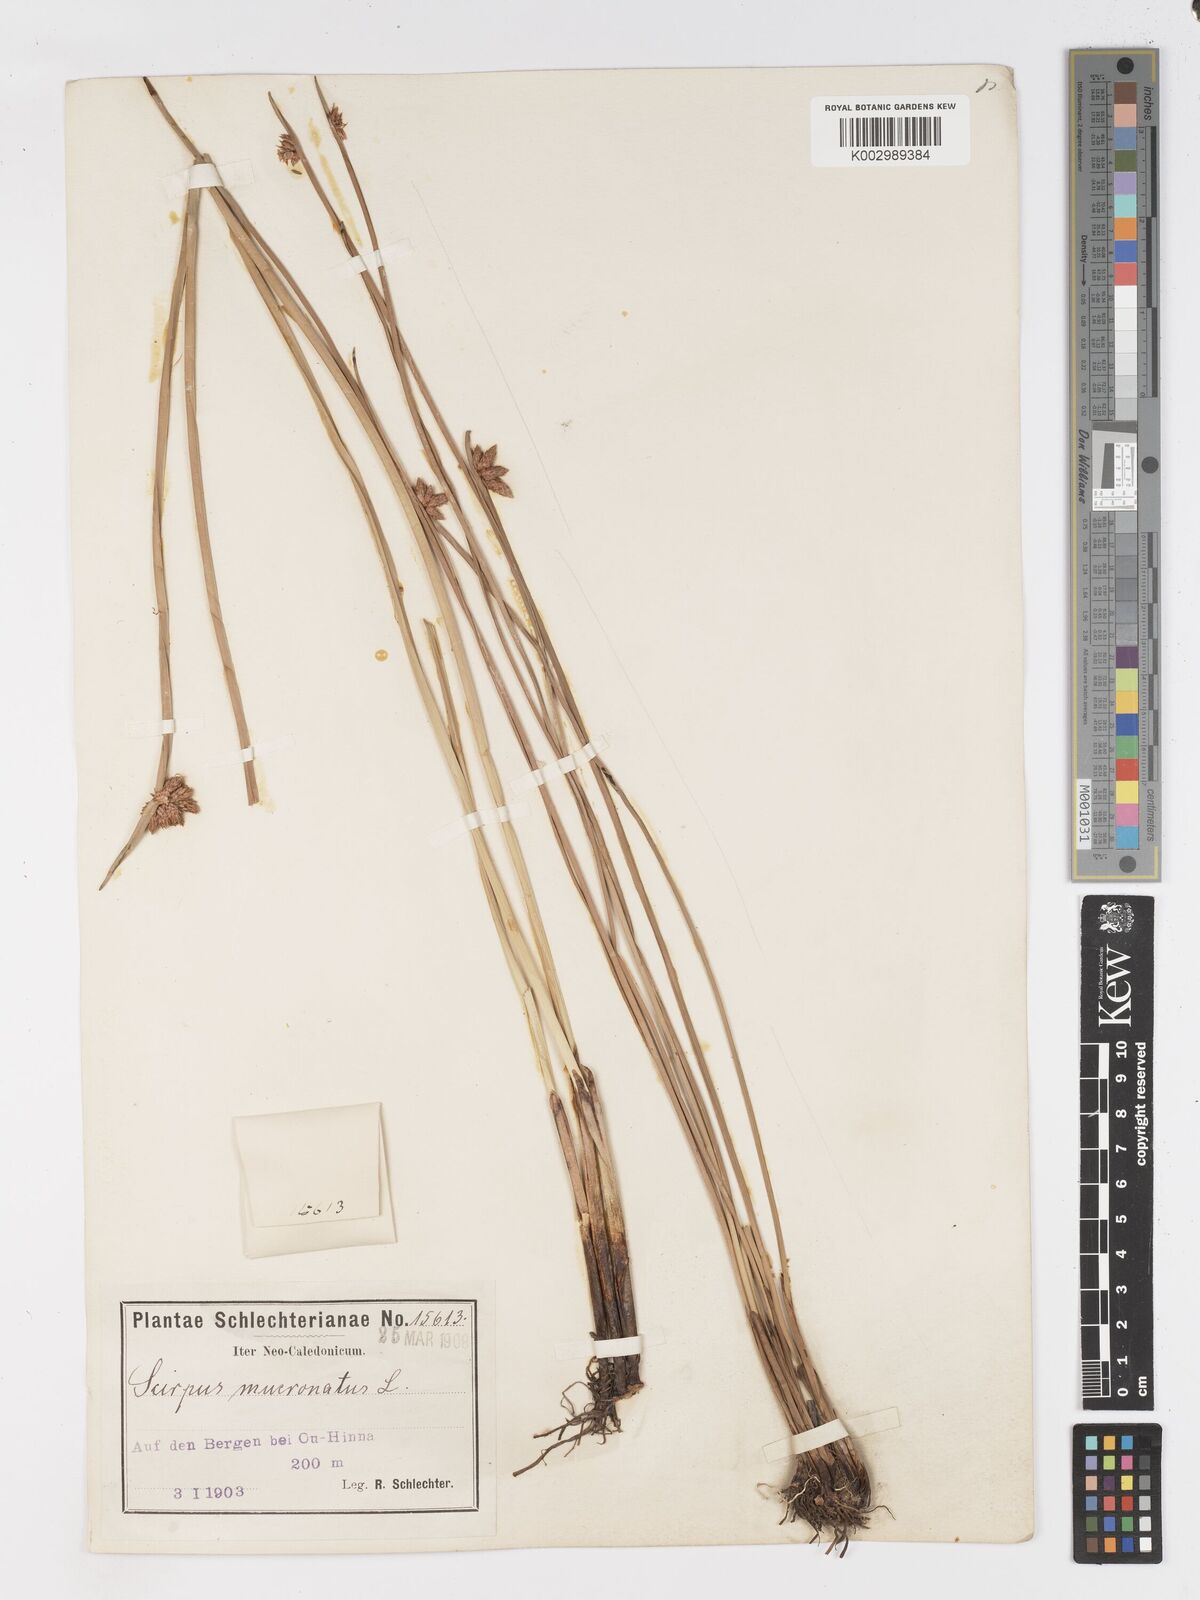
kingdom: Plantae
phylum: Tracheophyta
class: Liliopsida
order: Poales
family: Cyperaceae
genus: Schoenoplectiella
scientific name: Schoenoplectiella mucronata
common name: Bog bulrush
